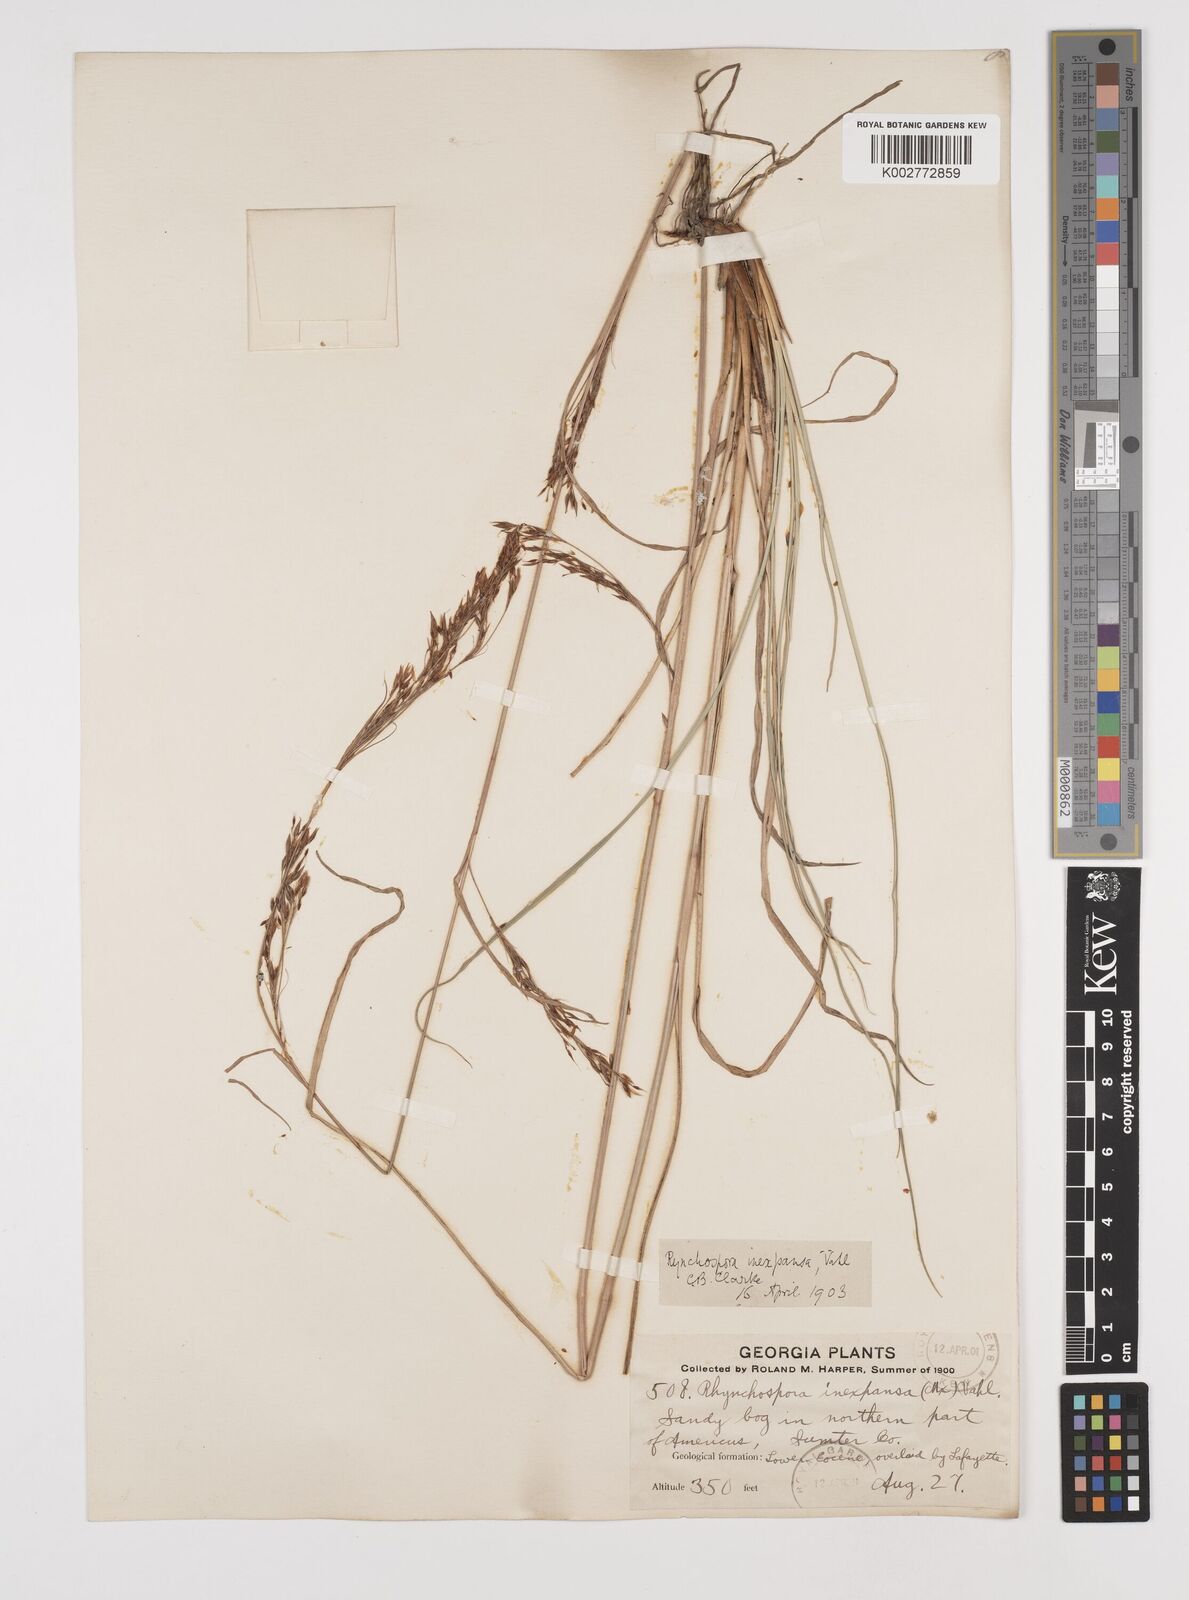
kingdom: Plantae
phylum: Tracheophyta
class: Liliopsida
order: Poales
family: Cyperaceae
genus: Rhynchospora
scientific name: Rhynchospora inexpansa
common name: Nodding beaksedge
